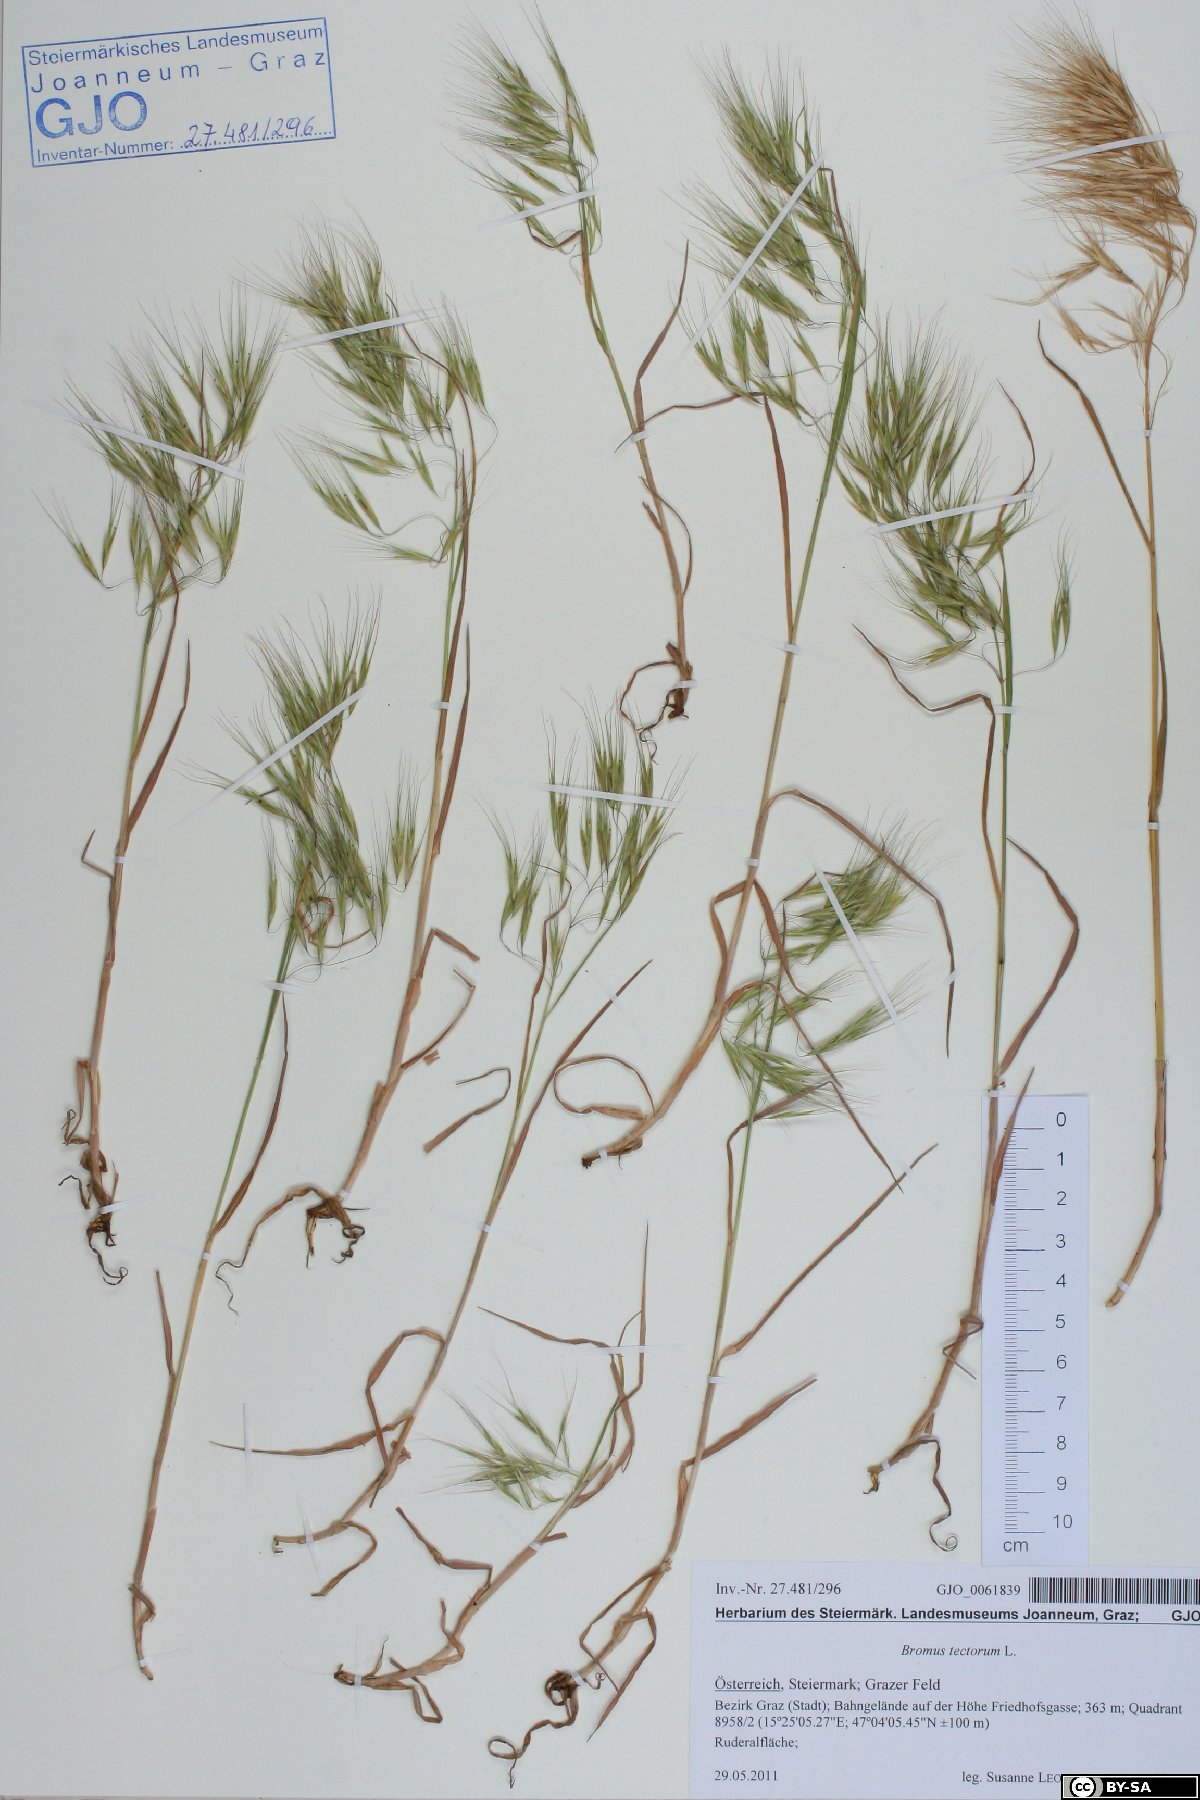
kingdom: Plantae
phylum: Tracheophyta
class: Liliopsida
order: Poales
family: Poaceae
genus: Bromus
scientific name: Bromus tectorum
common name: Cheatgrass
